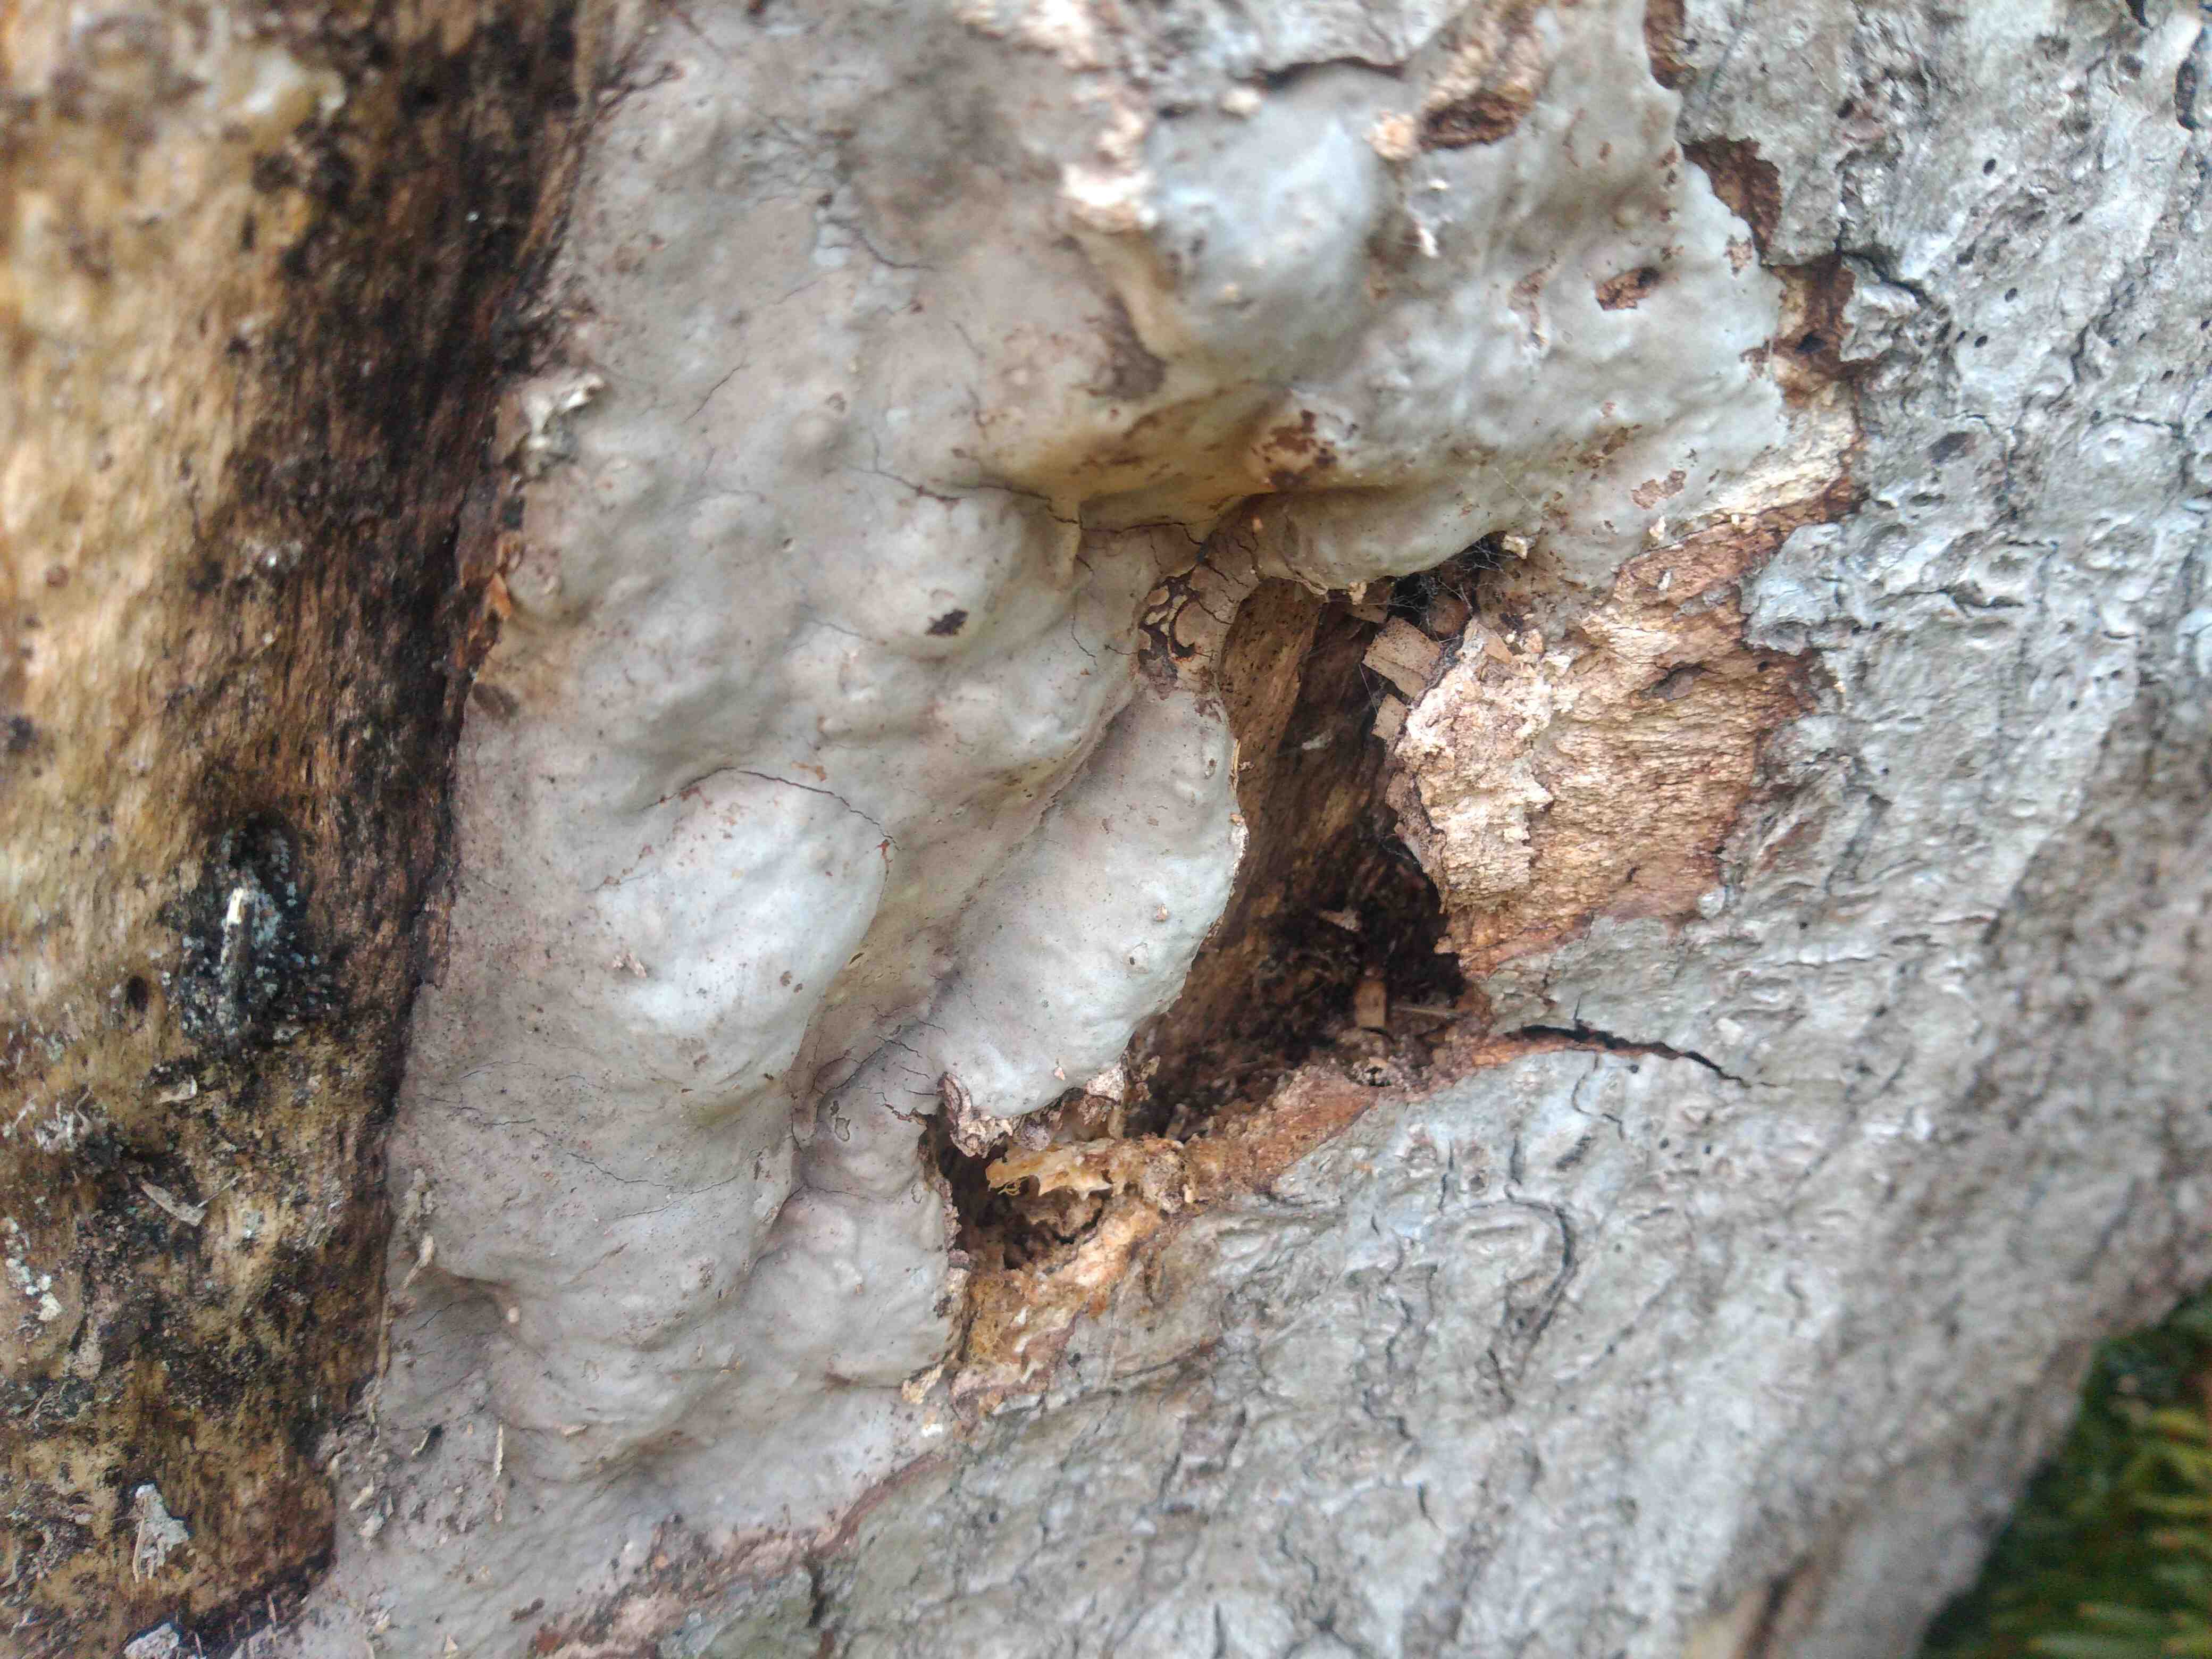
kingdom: Fungi
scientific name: Fungi
